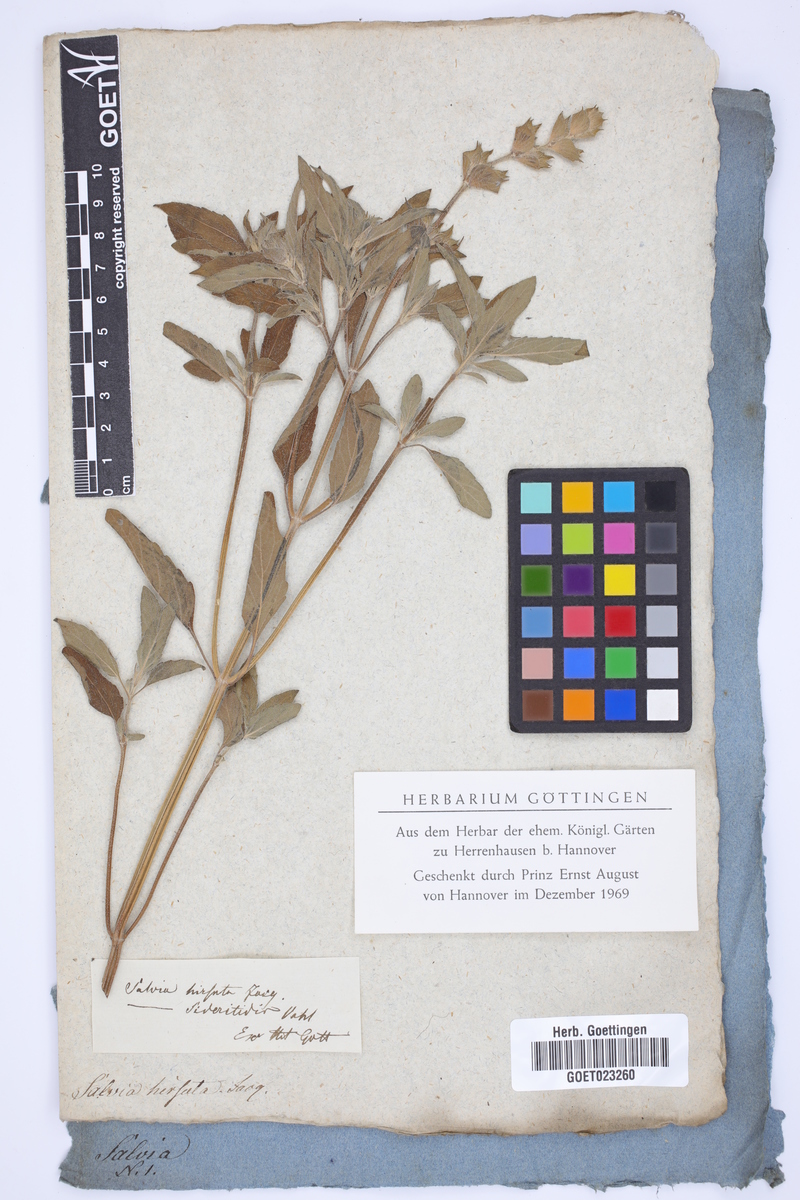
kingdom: Plantae
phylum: Tracheophyta
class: Magnoliopsida
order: Lamiales
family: Lamiaceae
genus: Salvia
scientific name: Salvia hirsuta
